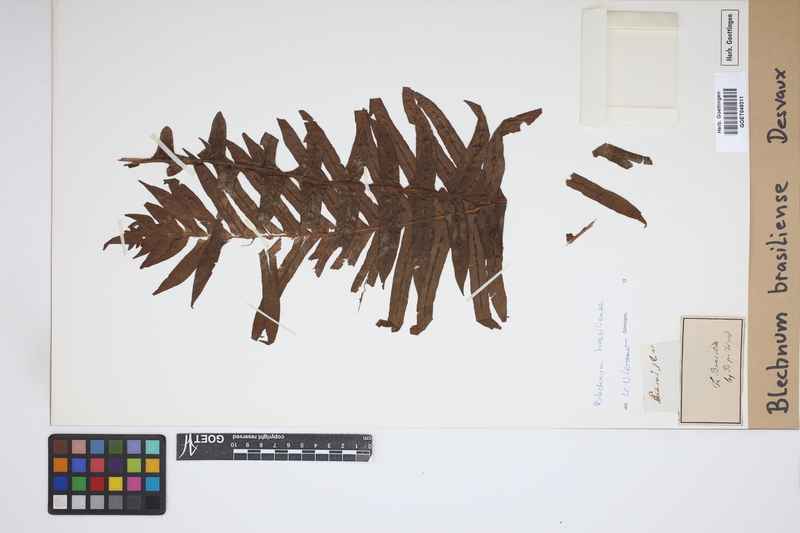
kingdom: Plantae
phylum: Tracheophyta
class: Polypodiopsida
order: Polypodiales
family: Blechnaceae
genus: Neoblechnum
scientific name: Neoblechnum brasiliense
